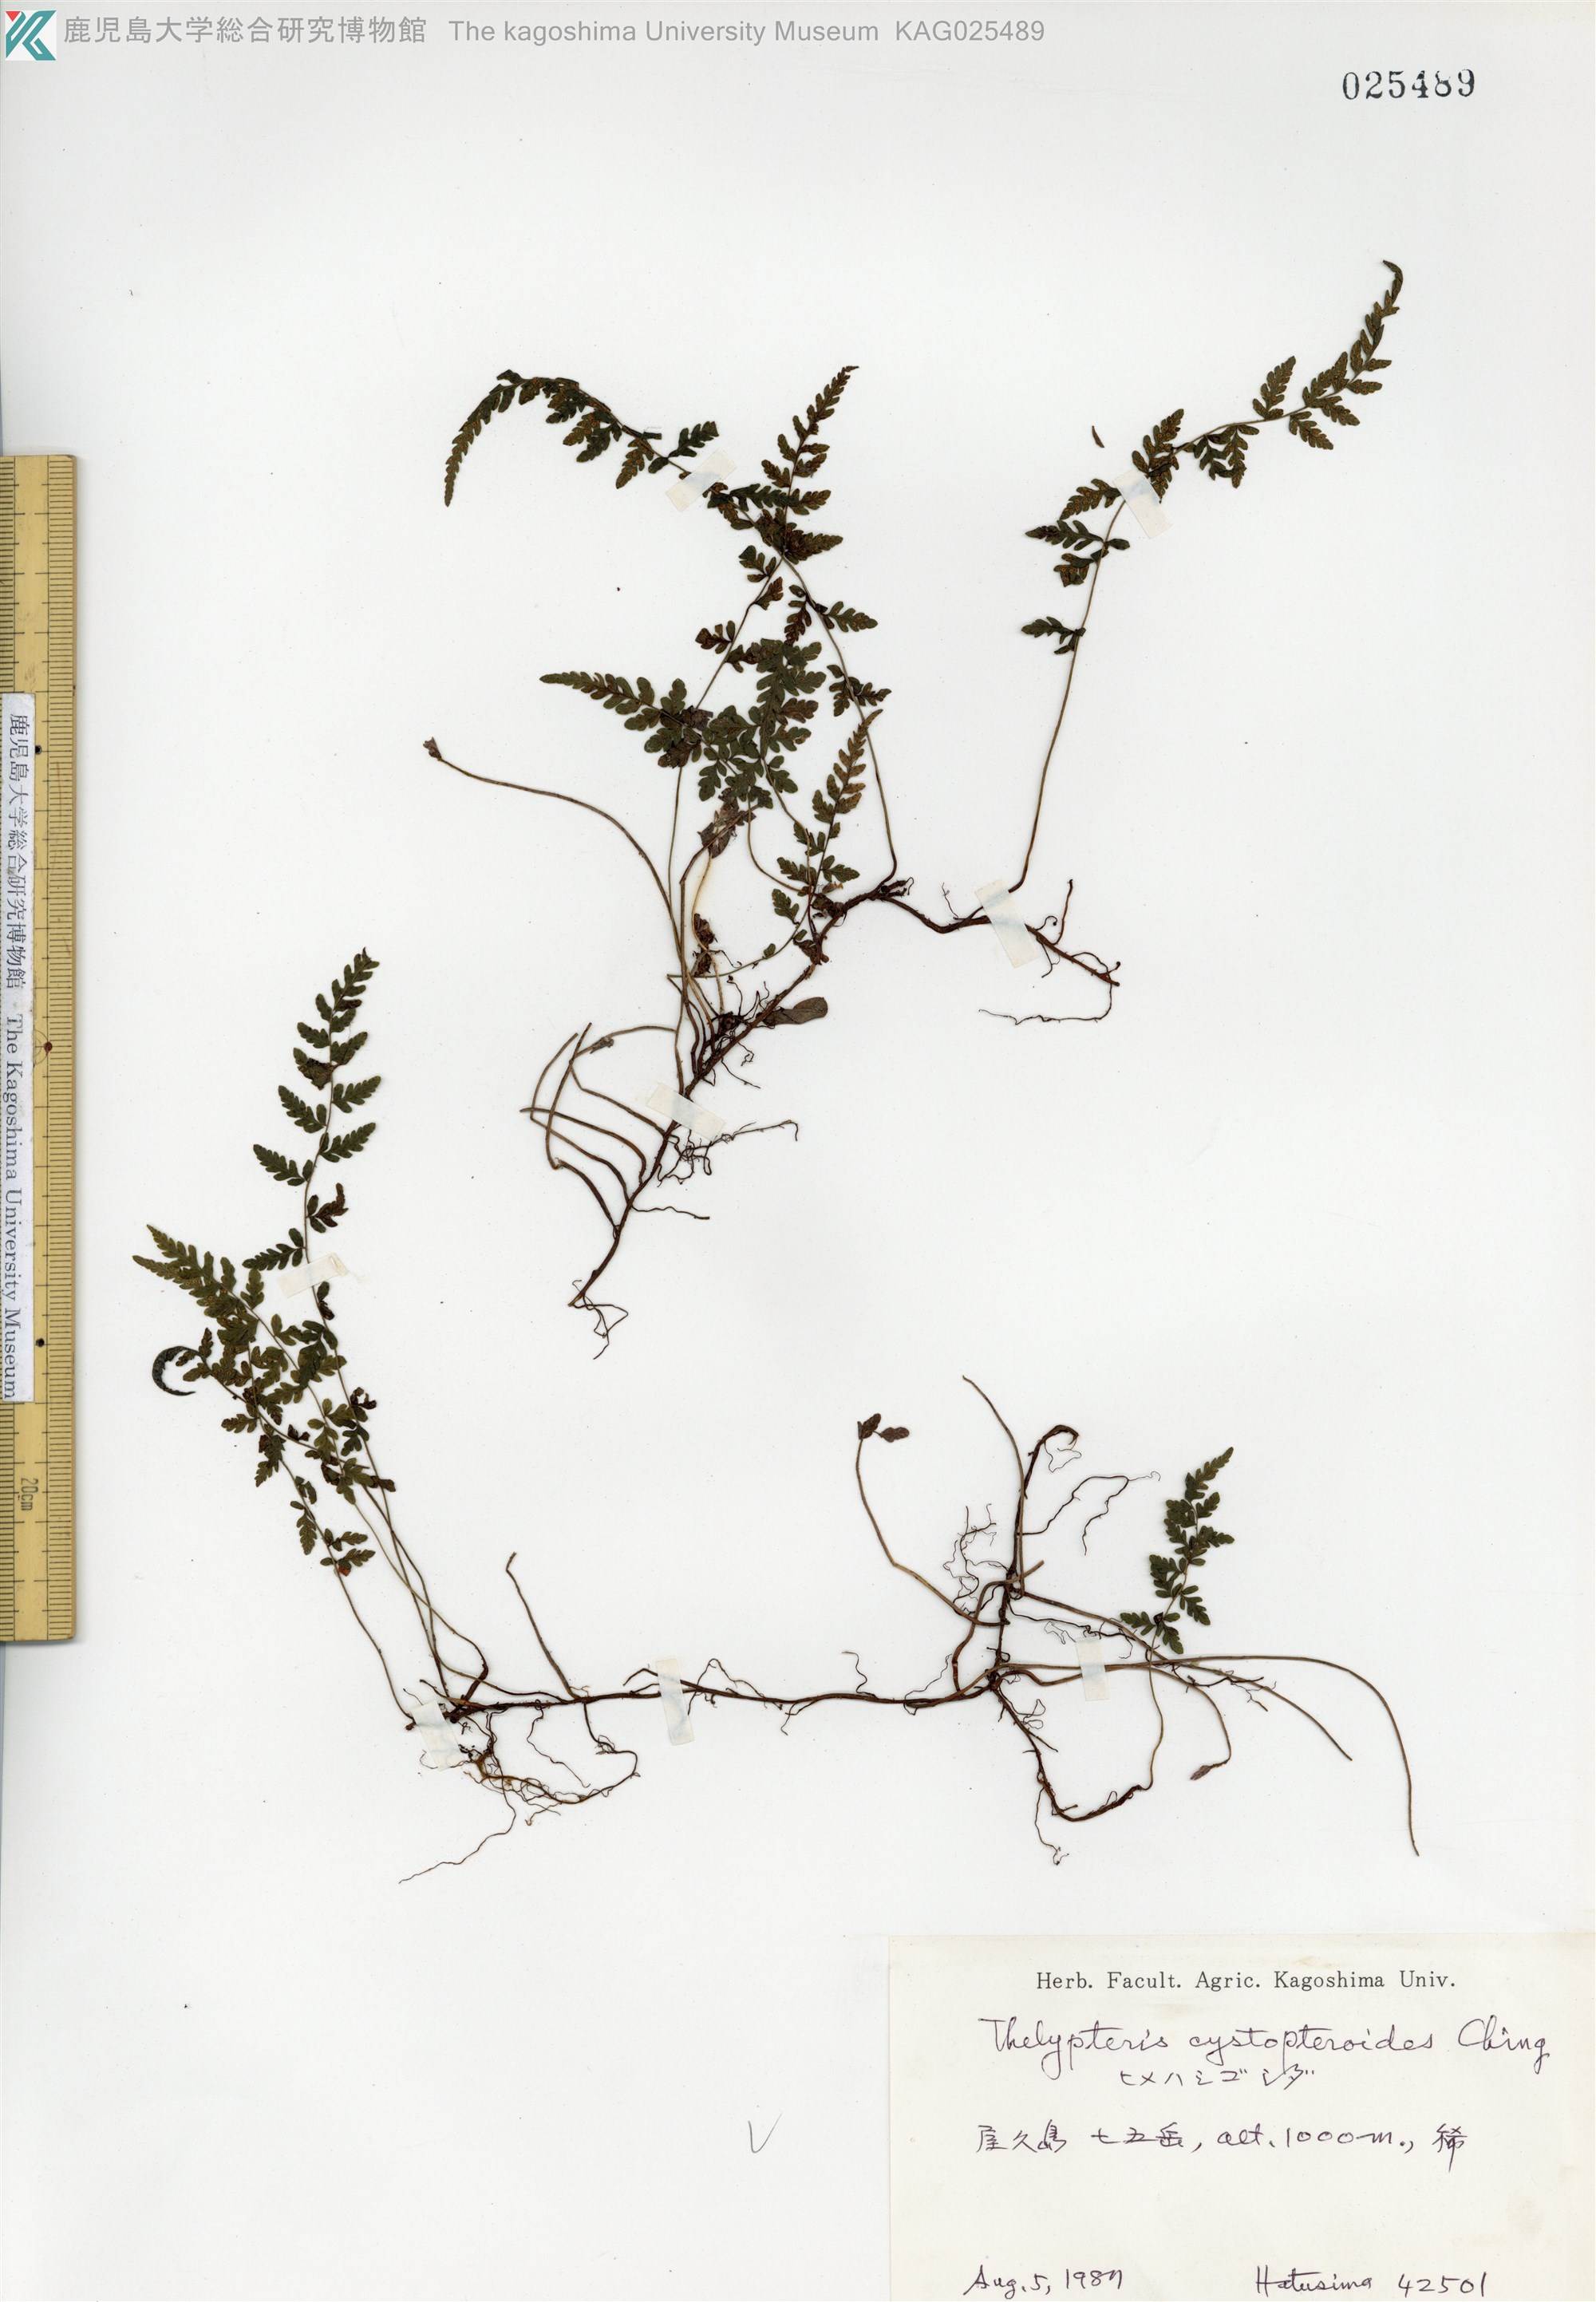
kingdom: Plantae
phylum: Tracheophyta
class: Polypodiopsida
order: Polypodiales
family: Thelypteridaceae
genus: Amauropelta
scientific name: Amauropelta cystopteroides
